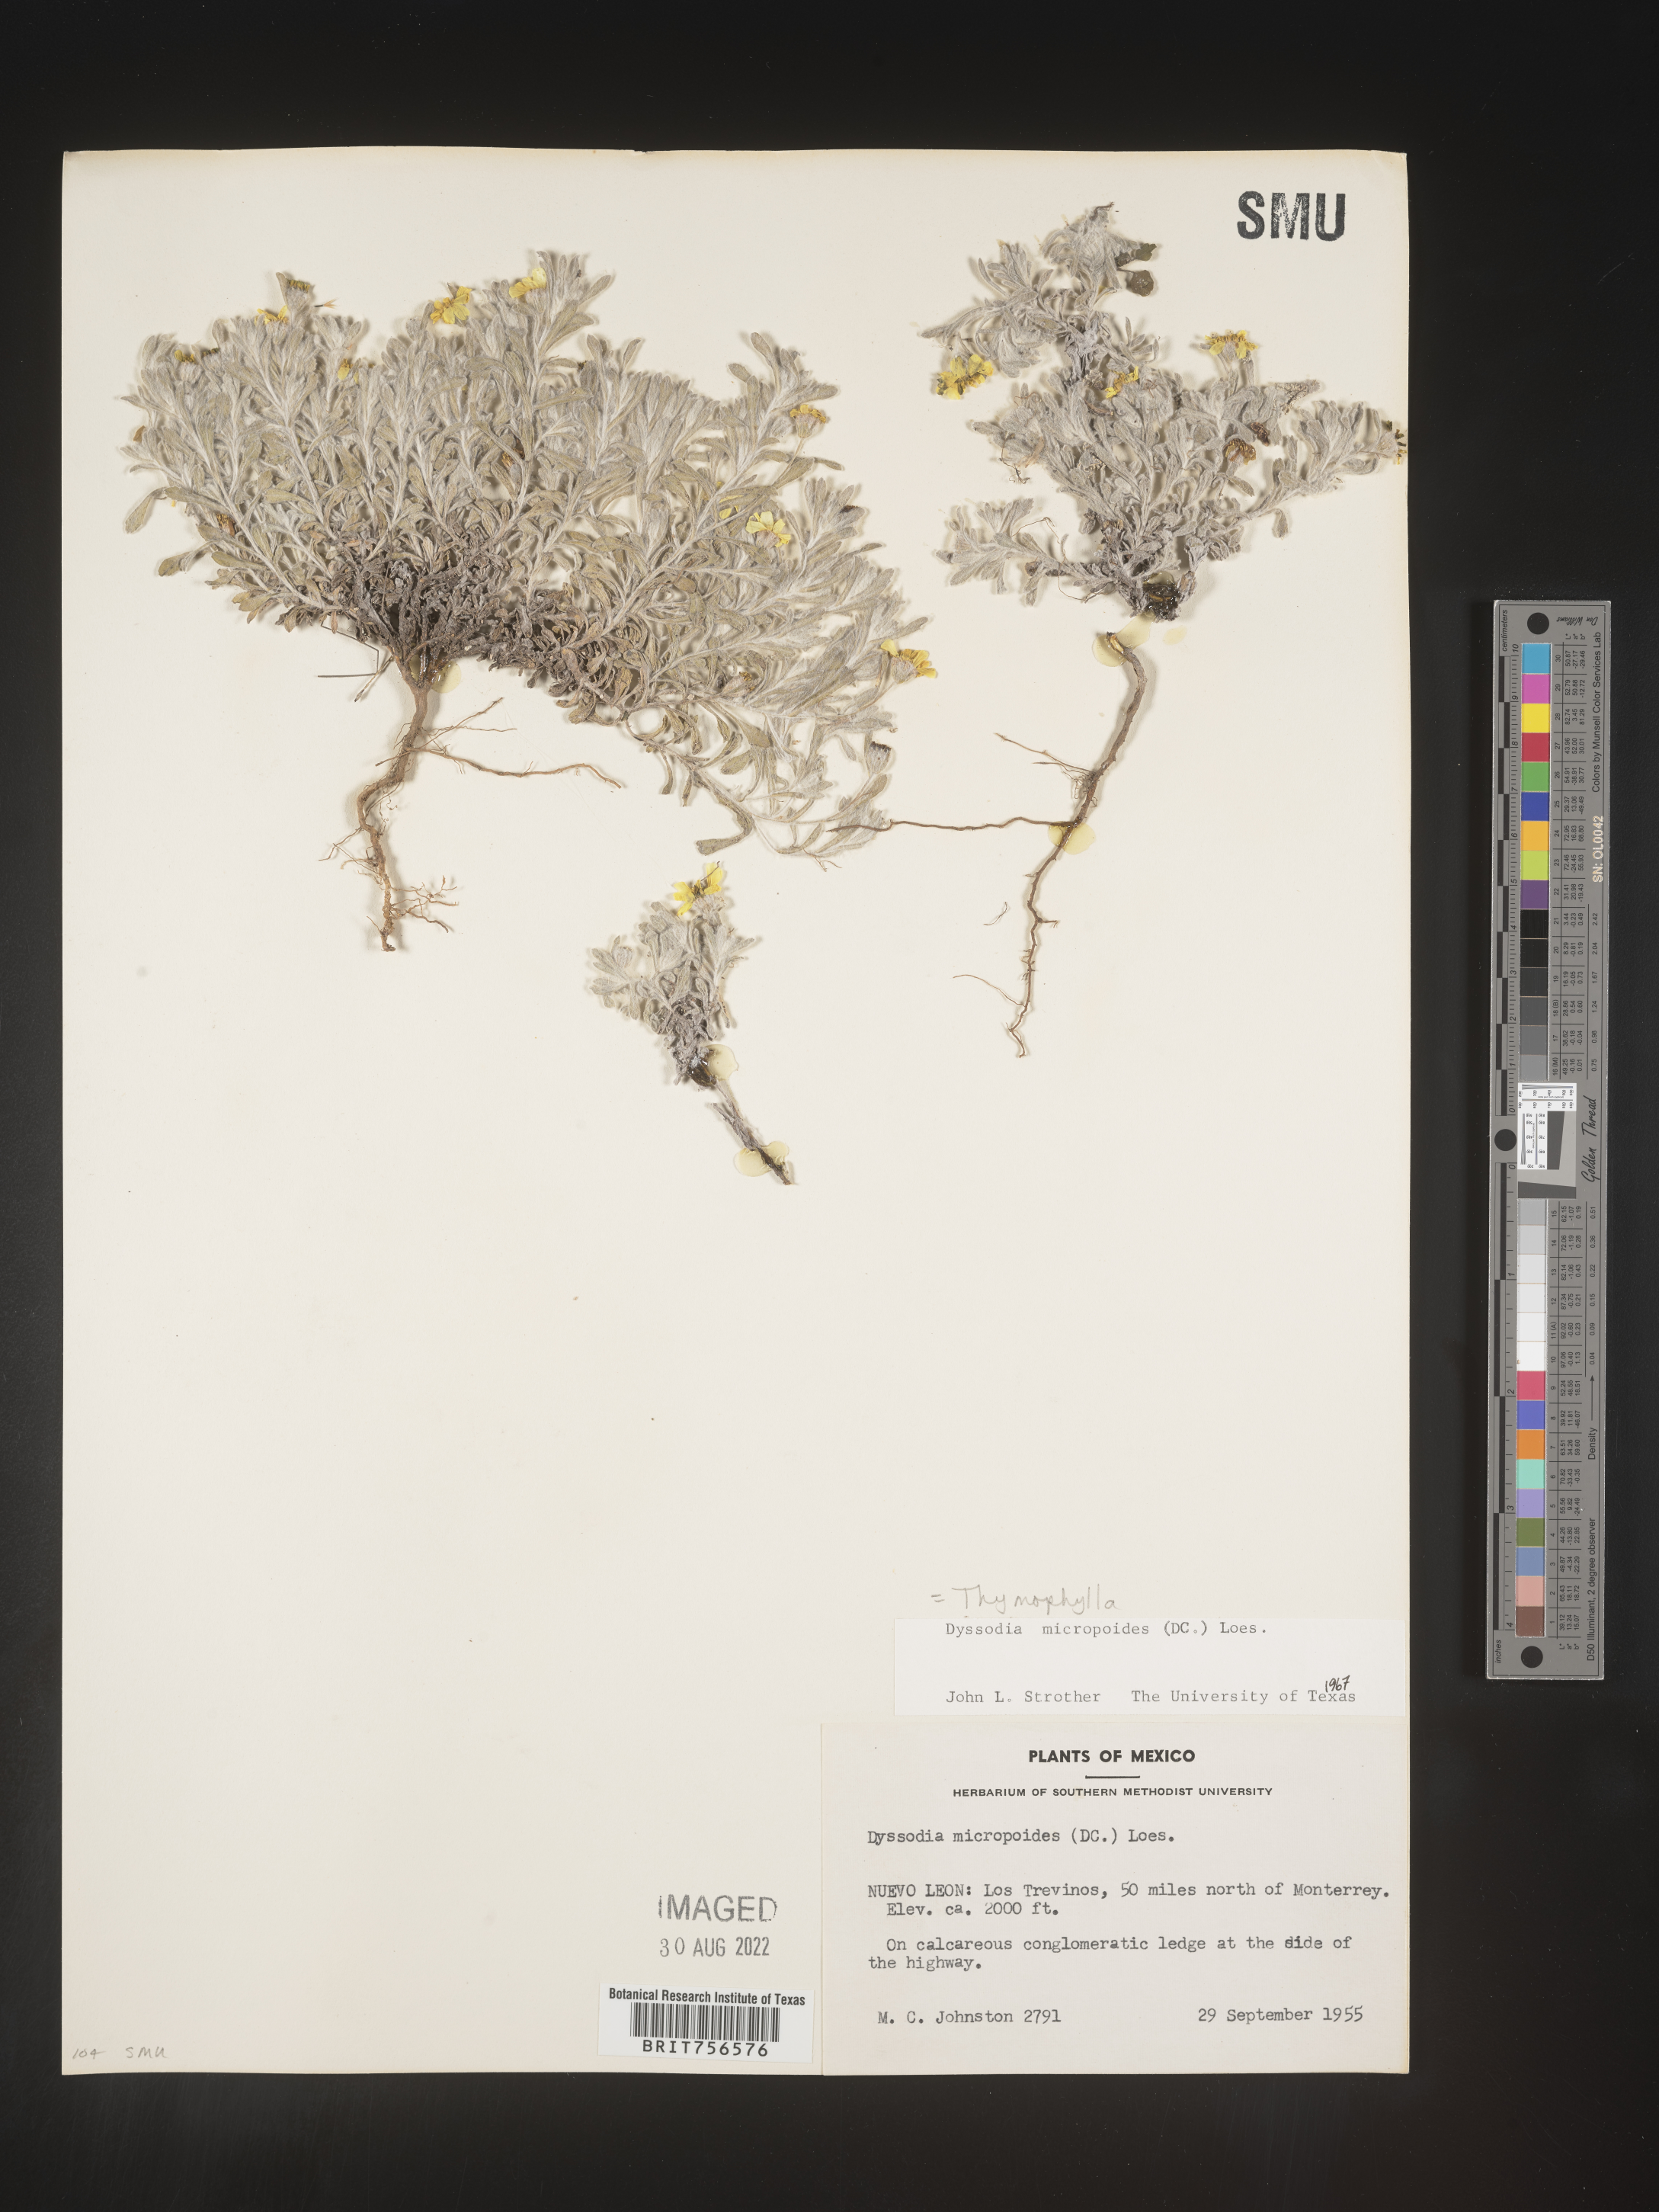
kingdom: Plantae
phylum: Tracheophyta
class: Magnoliopsida
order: Asterales
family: Asteraceae
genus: Thymophylla
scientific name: Thymophylla micropoides
